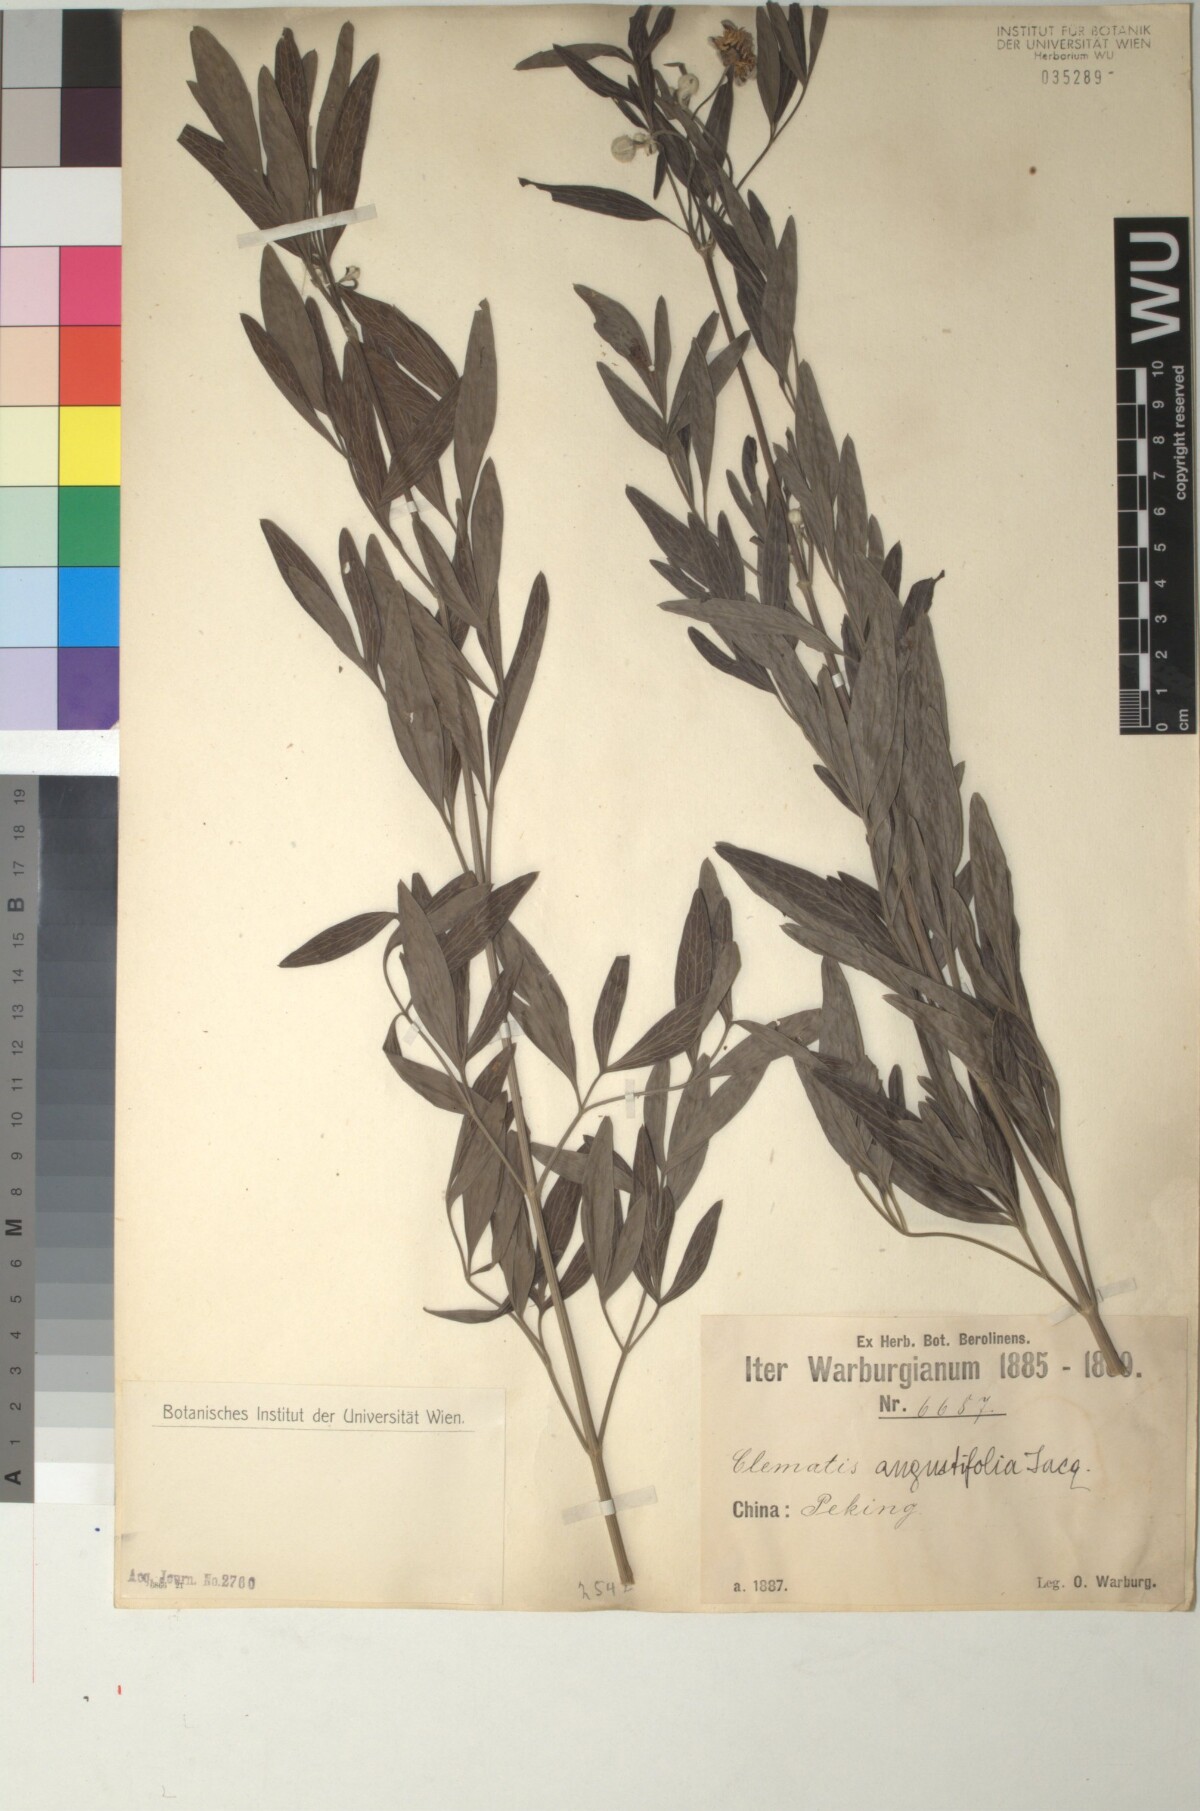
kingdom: Plantae
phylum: Tracheophyta
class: Magnoliopsida
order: Ranunculales
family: Ranunculaceae
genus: Clematis
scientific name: Clematis hexapetala
